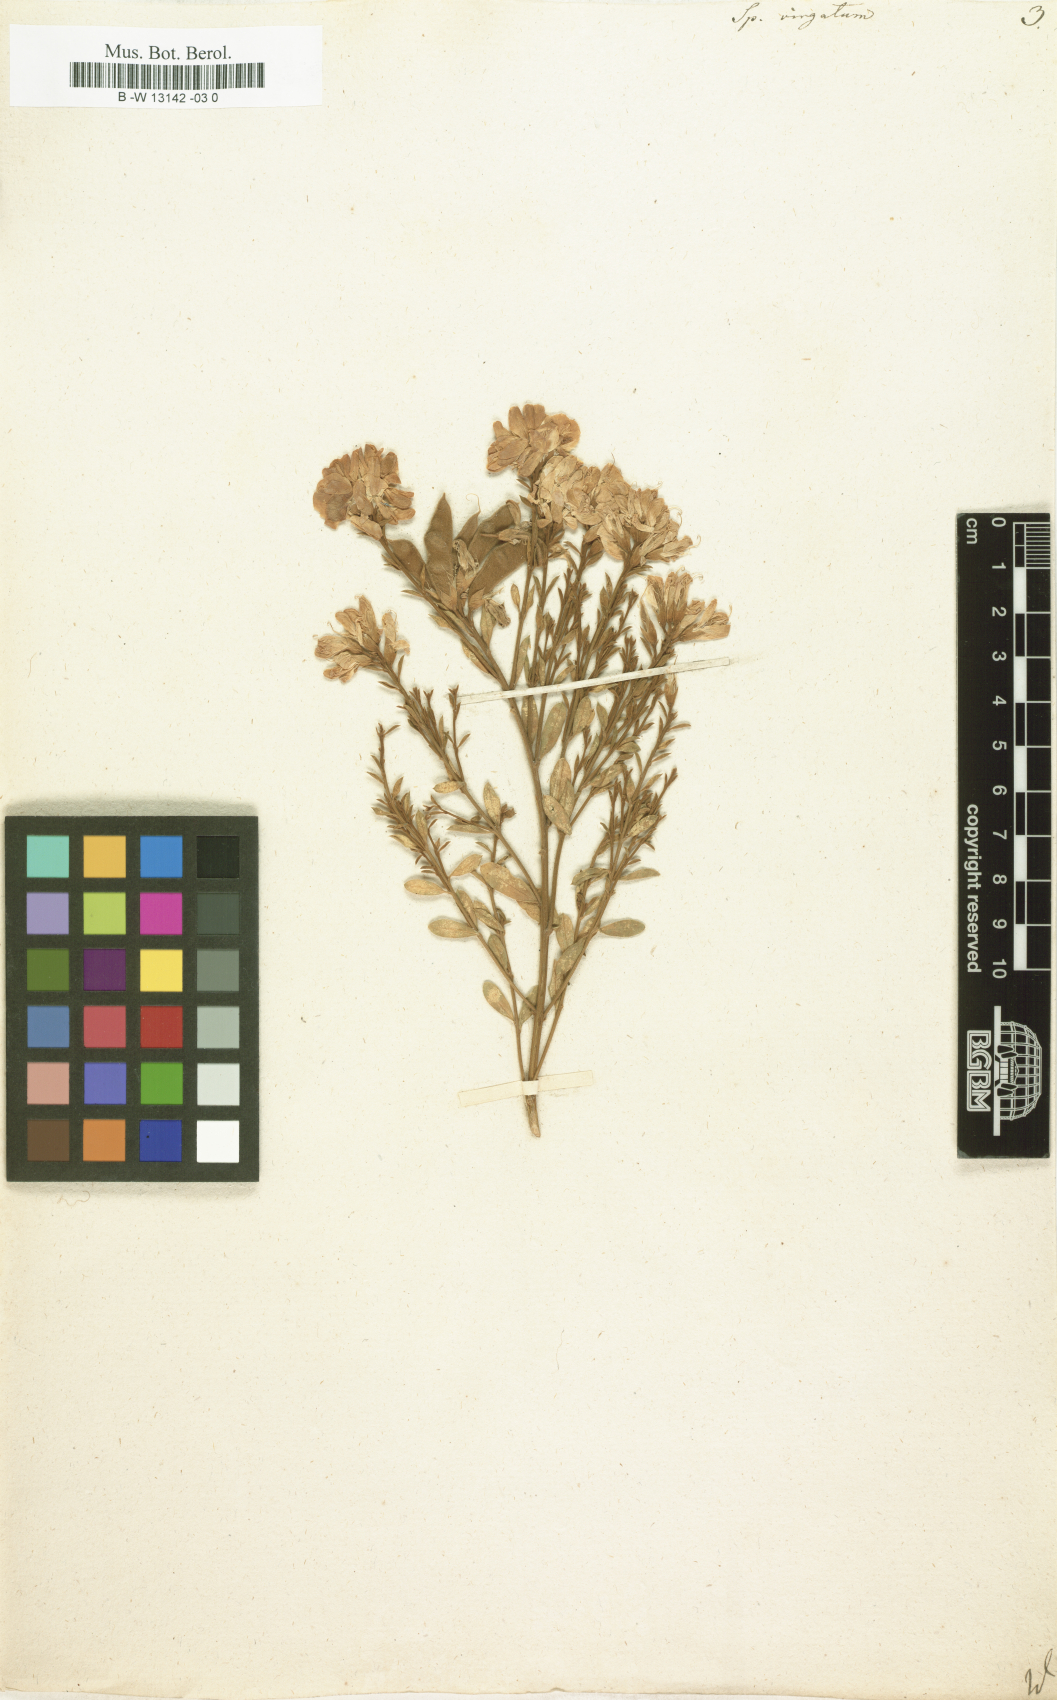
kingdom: Plantae
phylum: Tracheophyta
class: Magnoliopsida
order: Fabales
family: Fabaceae
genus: Genista
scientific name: Genista tenera
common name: Madeira broom
